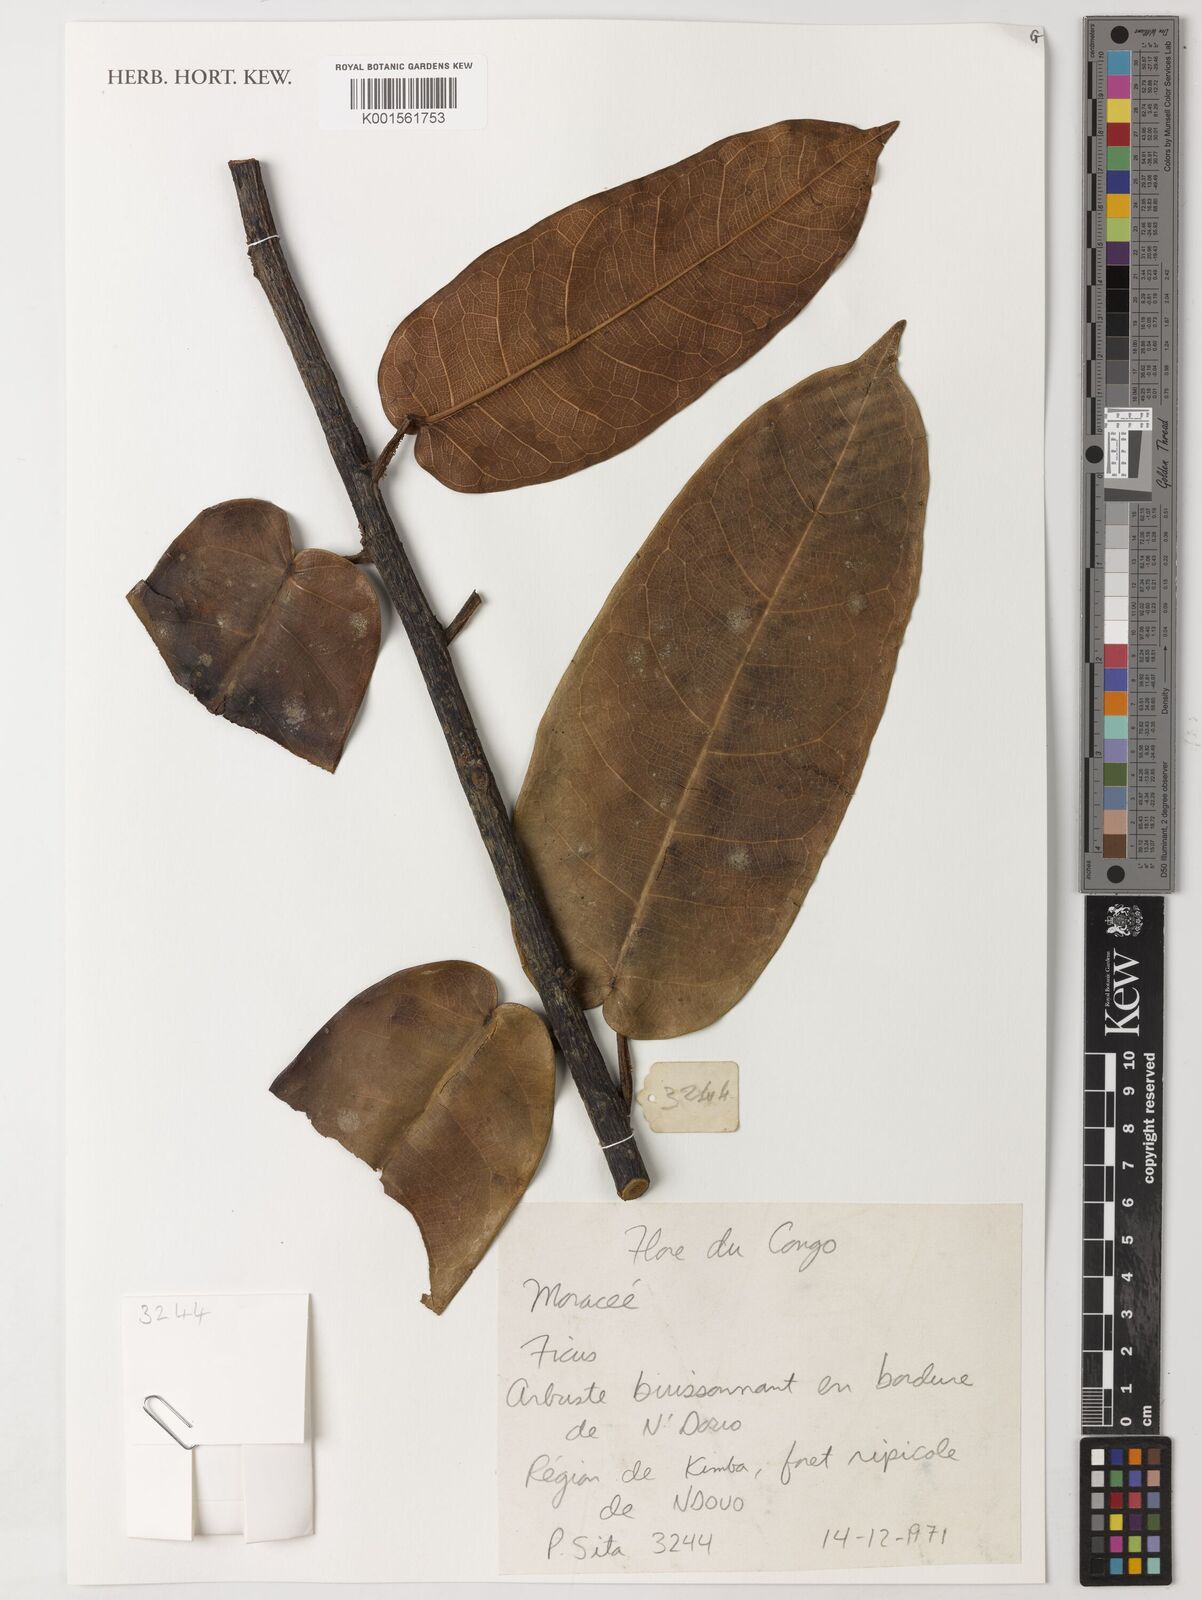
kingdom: Plantae
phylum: Tracheophyta
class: Magnoliopsida
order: Rosales
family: Moraceae
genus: Ficus
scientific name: Ficus
